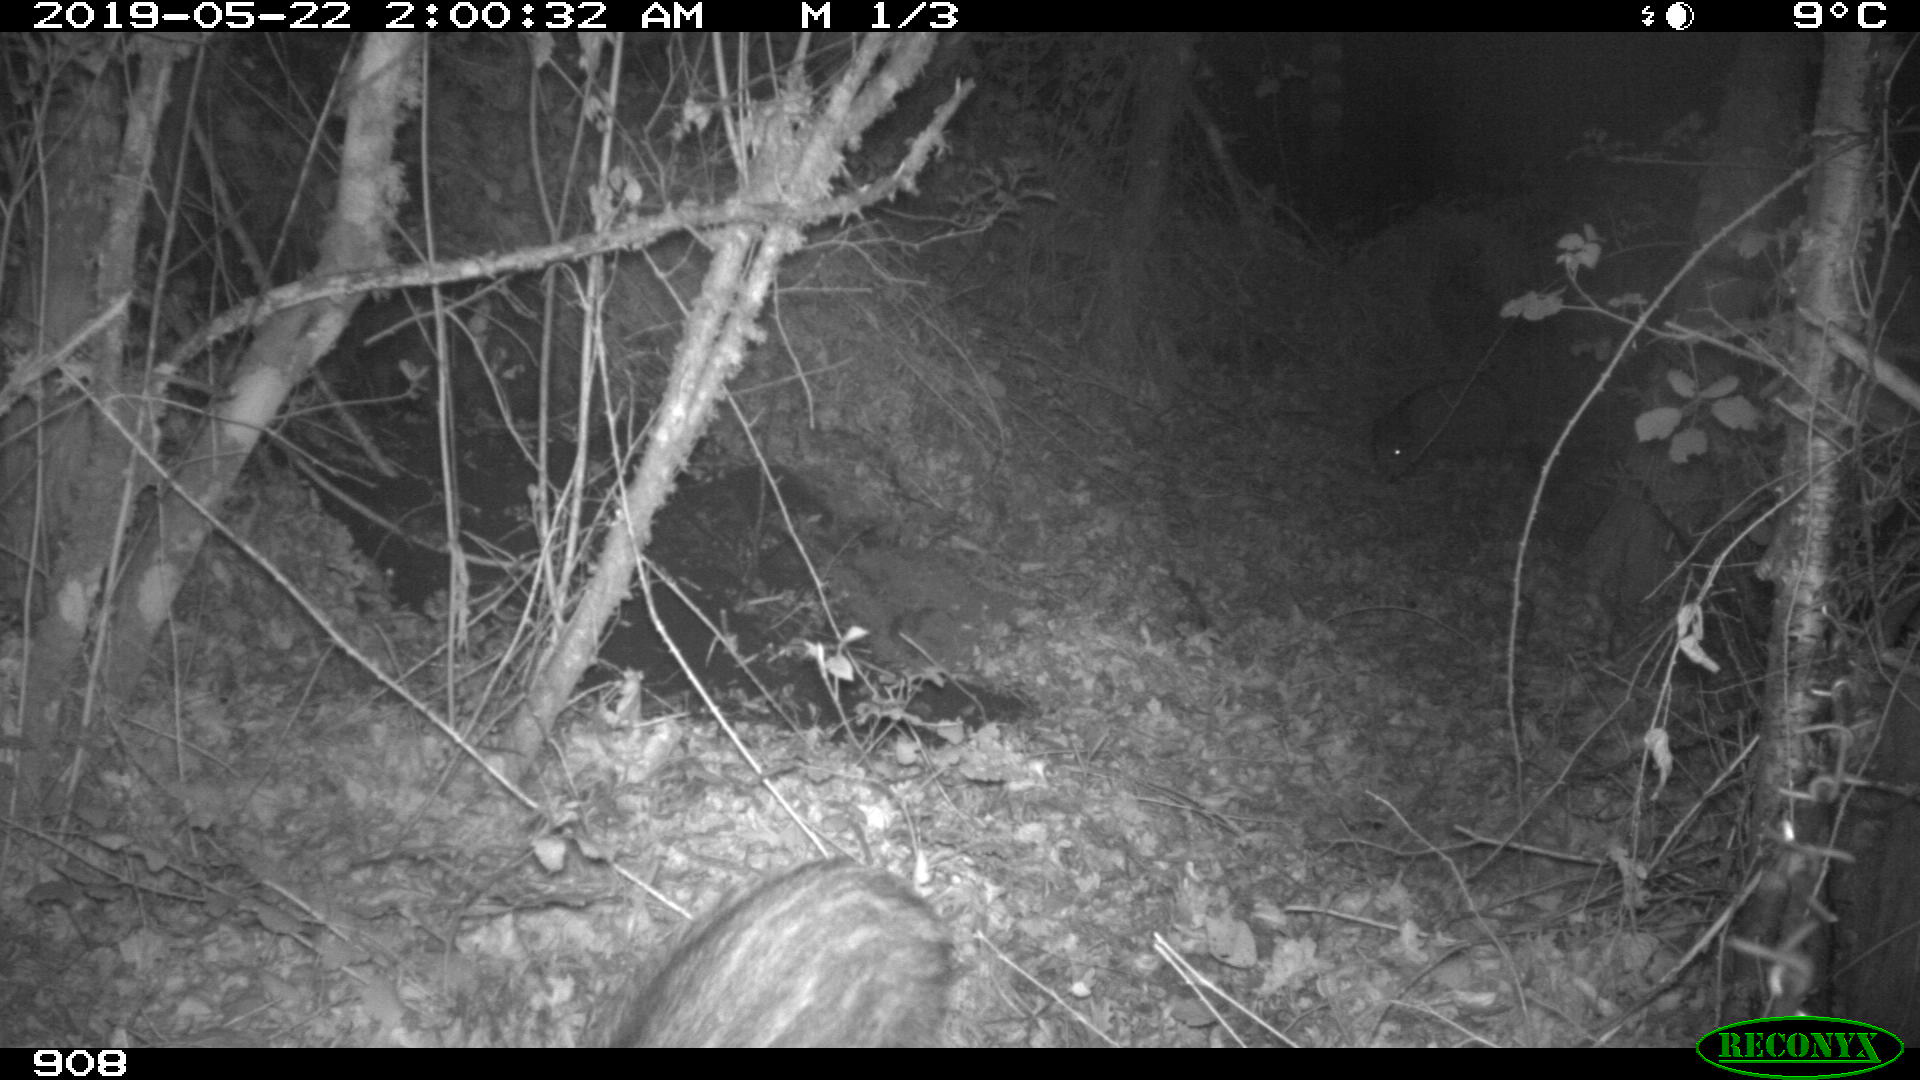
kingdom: Animalia
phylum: Chordata
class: Mammalia
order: Artiodactyla
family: Suidae
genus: Sus
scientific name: Sus scrofa
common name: Wild boar
